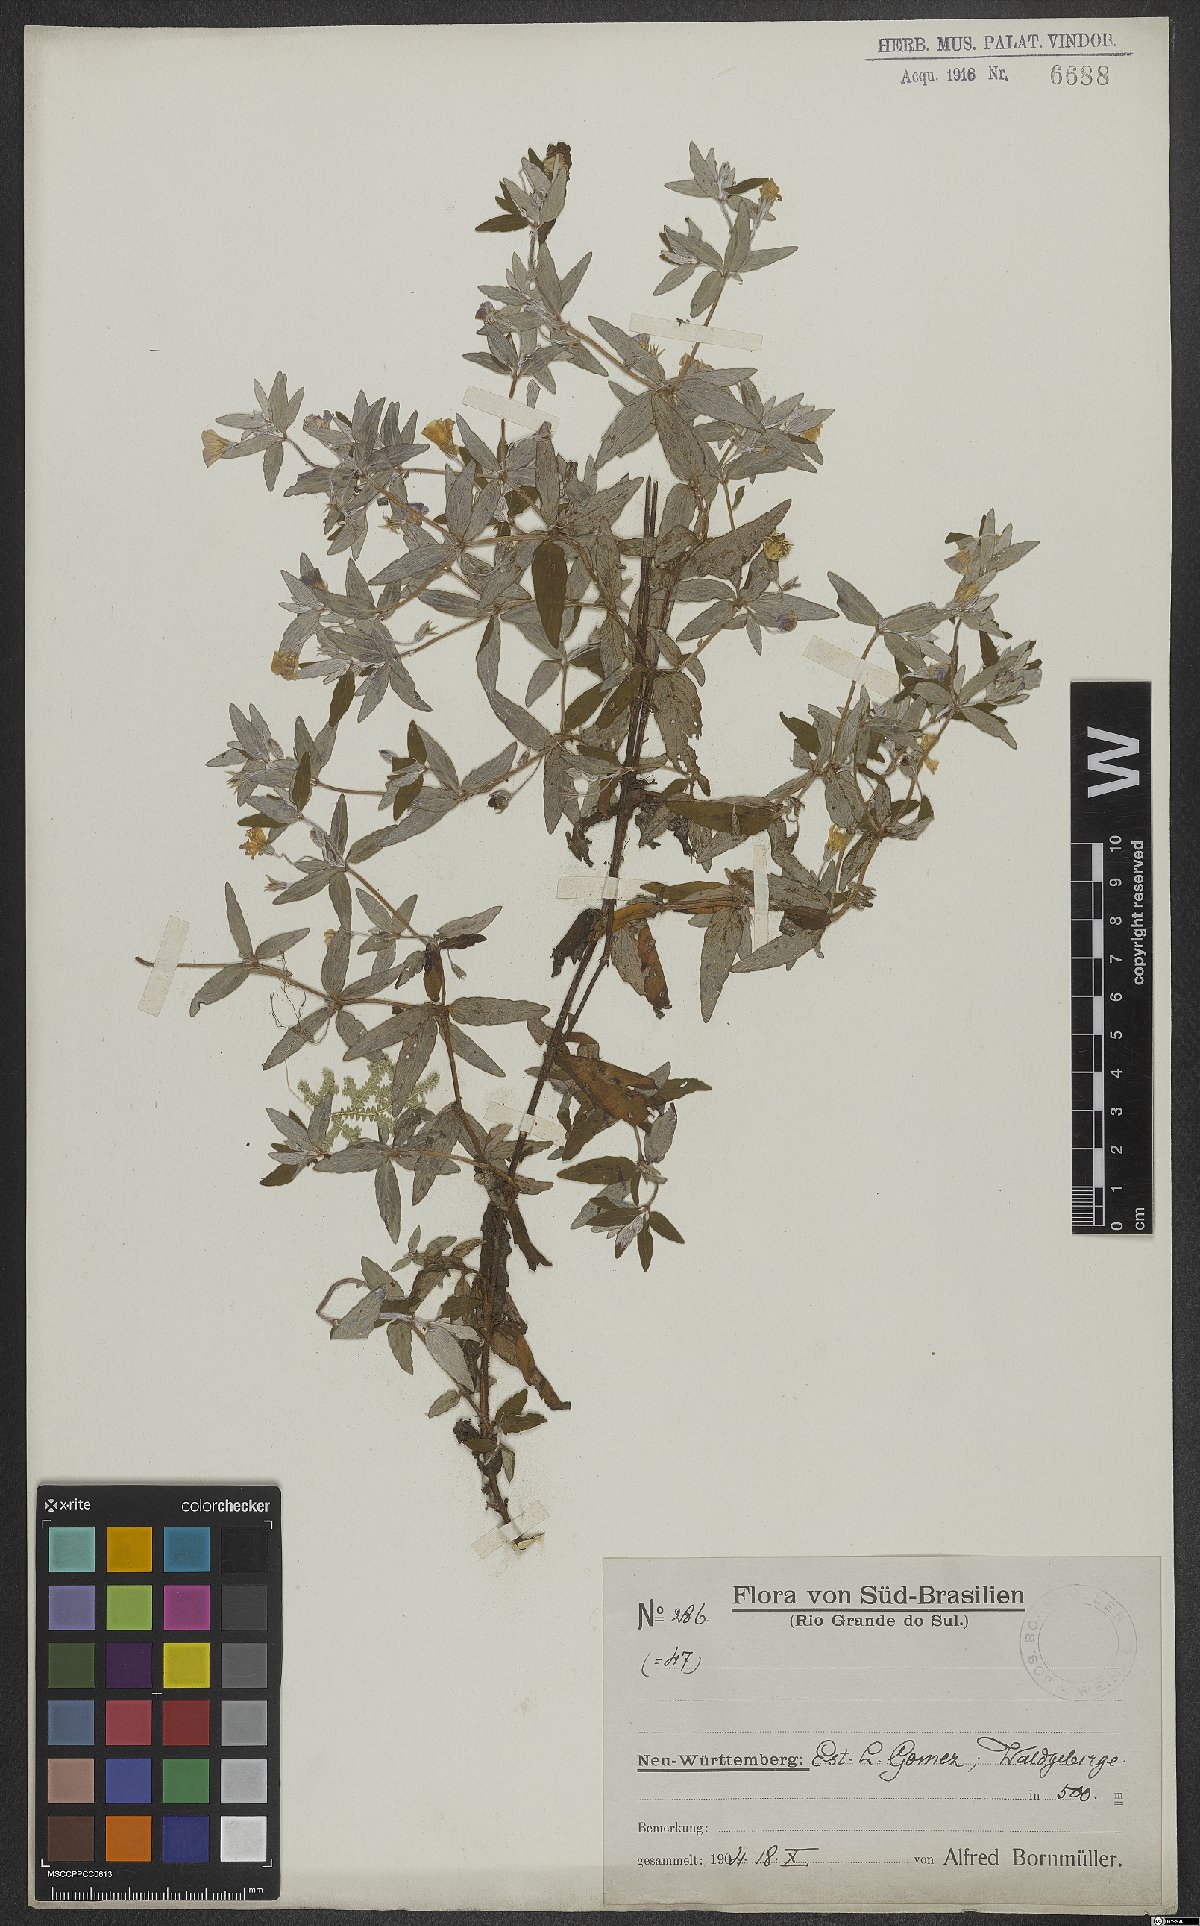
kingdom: Plantae
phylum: Tracheophyta
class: Magnoliopsida
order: Lamiales
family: Scrophulariaceae
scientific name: Scrophulariaceae
